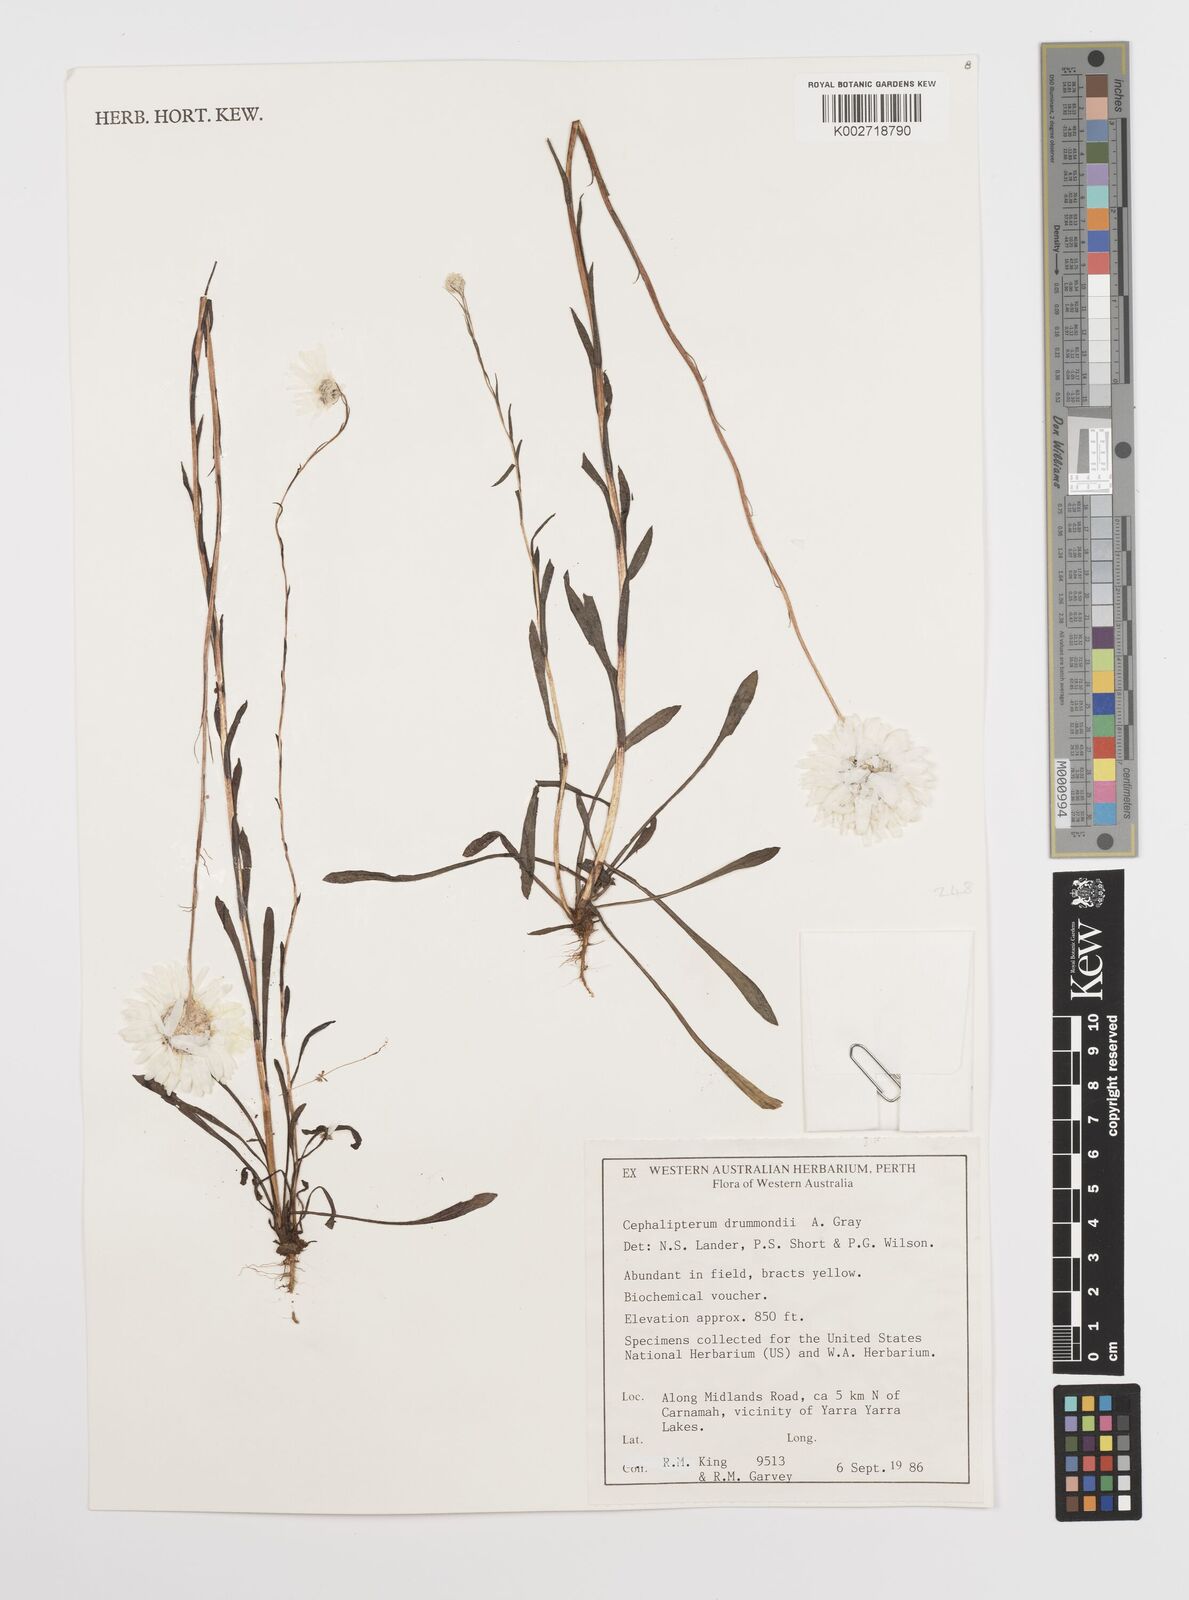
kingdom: Plantae
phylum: Tracheophyta
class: Magnoliopsida
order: Asterales
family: Asteraceae
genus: Cephalipterum
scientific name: Cephalipterum drummondii
